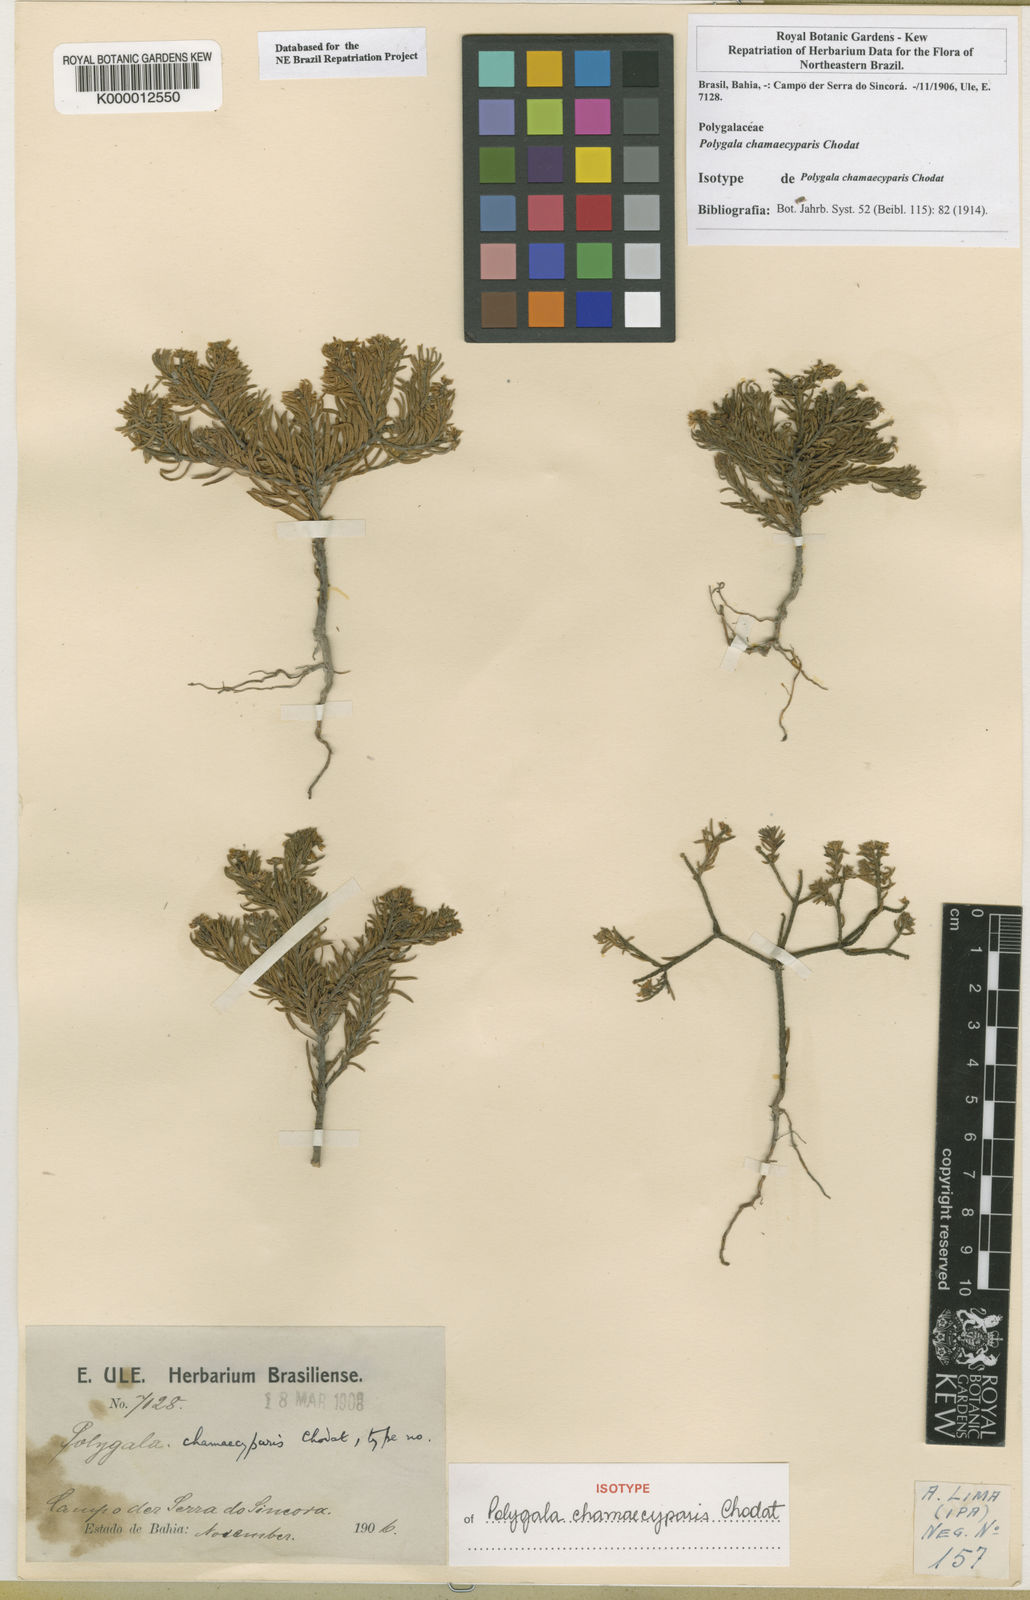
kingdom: Plantae
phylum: Tracheophyta
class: Magnoliopsida
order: Fabales
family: Polygalaceae
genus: Polygala
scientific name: Polygala chamaecyparis
